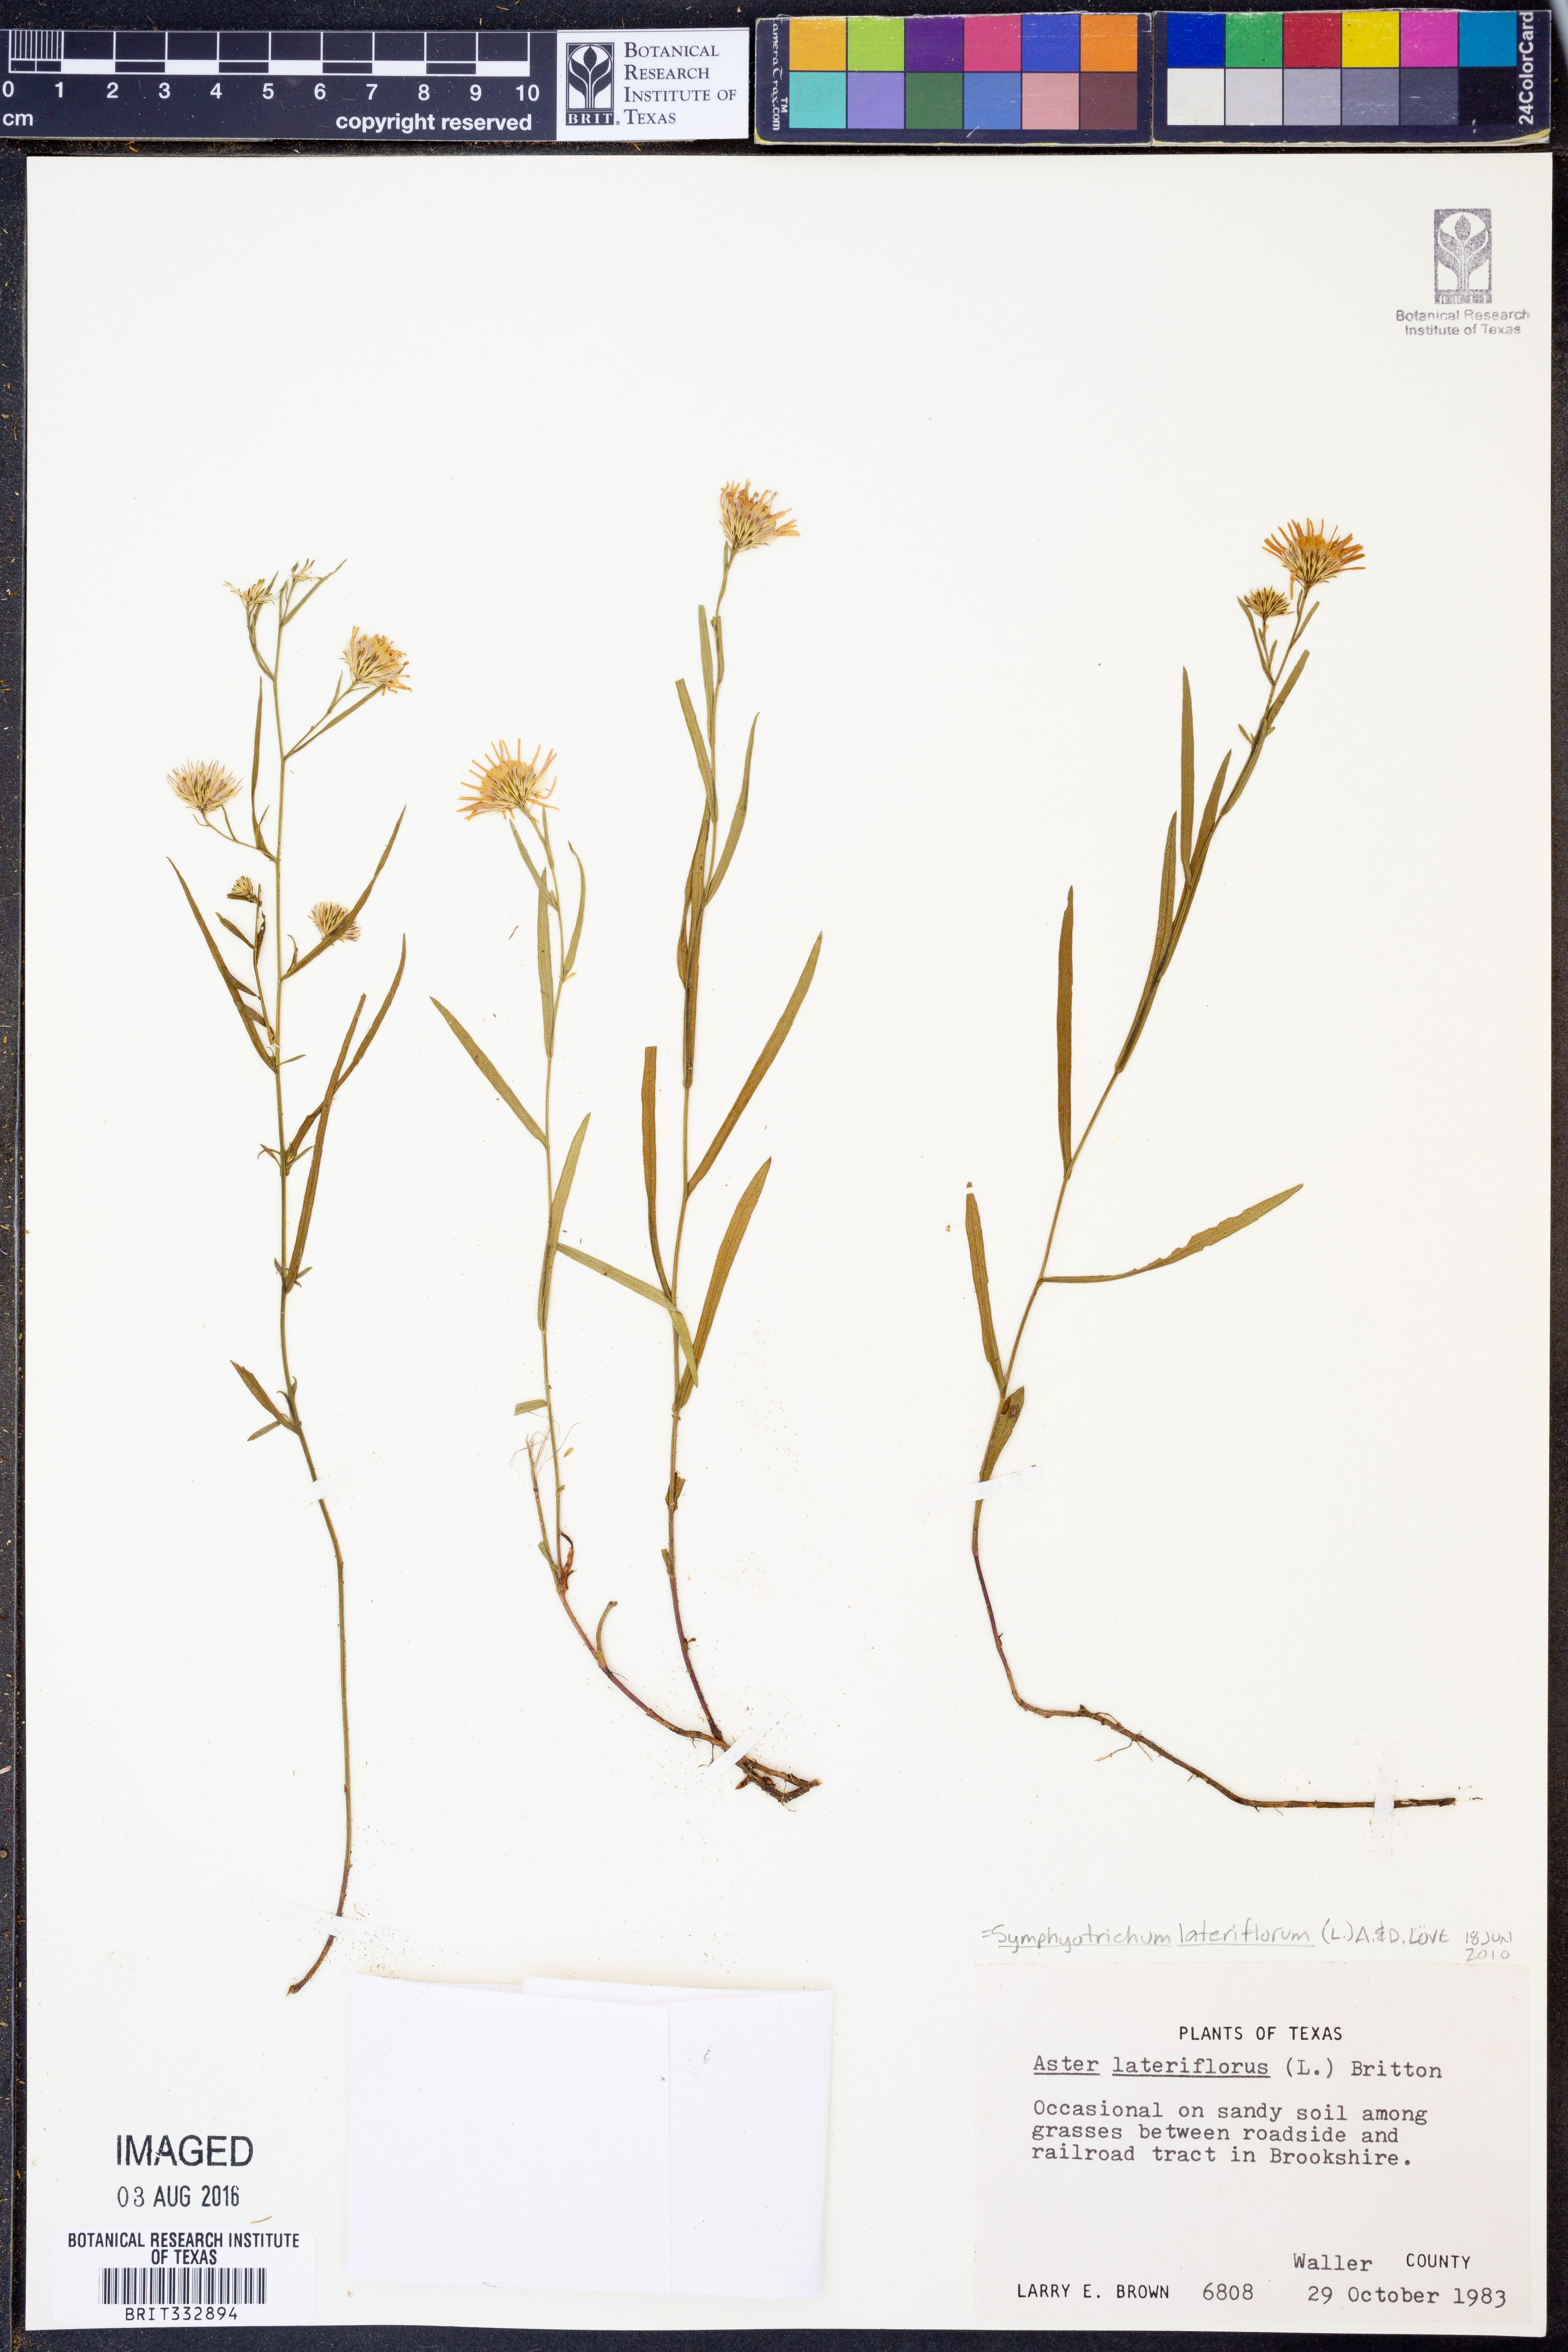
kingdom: Plantae
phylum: Tracheophyta
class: Magnoliopsida
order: Asterales
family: Asteraceae
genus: Symphyotrichum
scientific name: Symphyotrichum lateriflorum
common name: Calico aster
